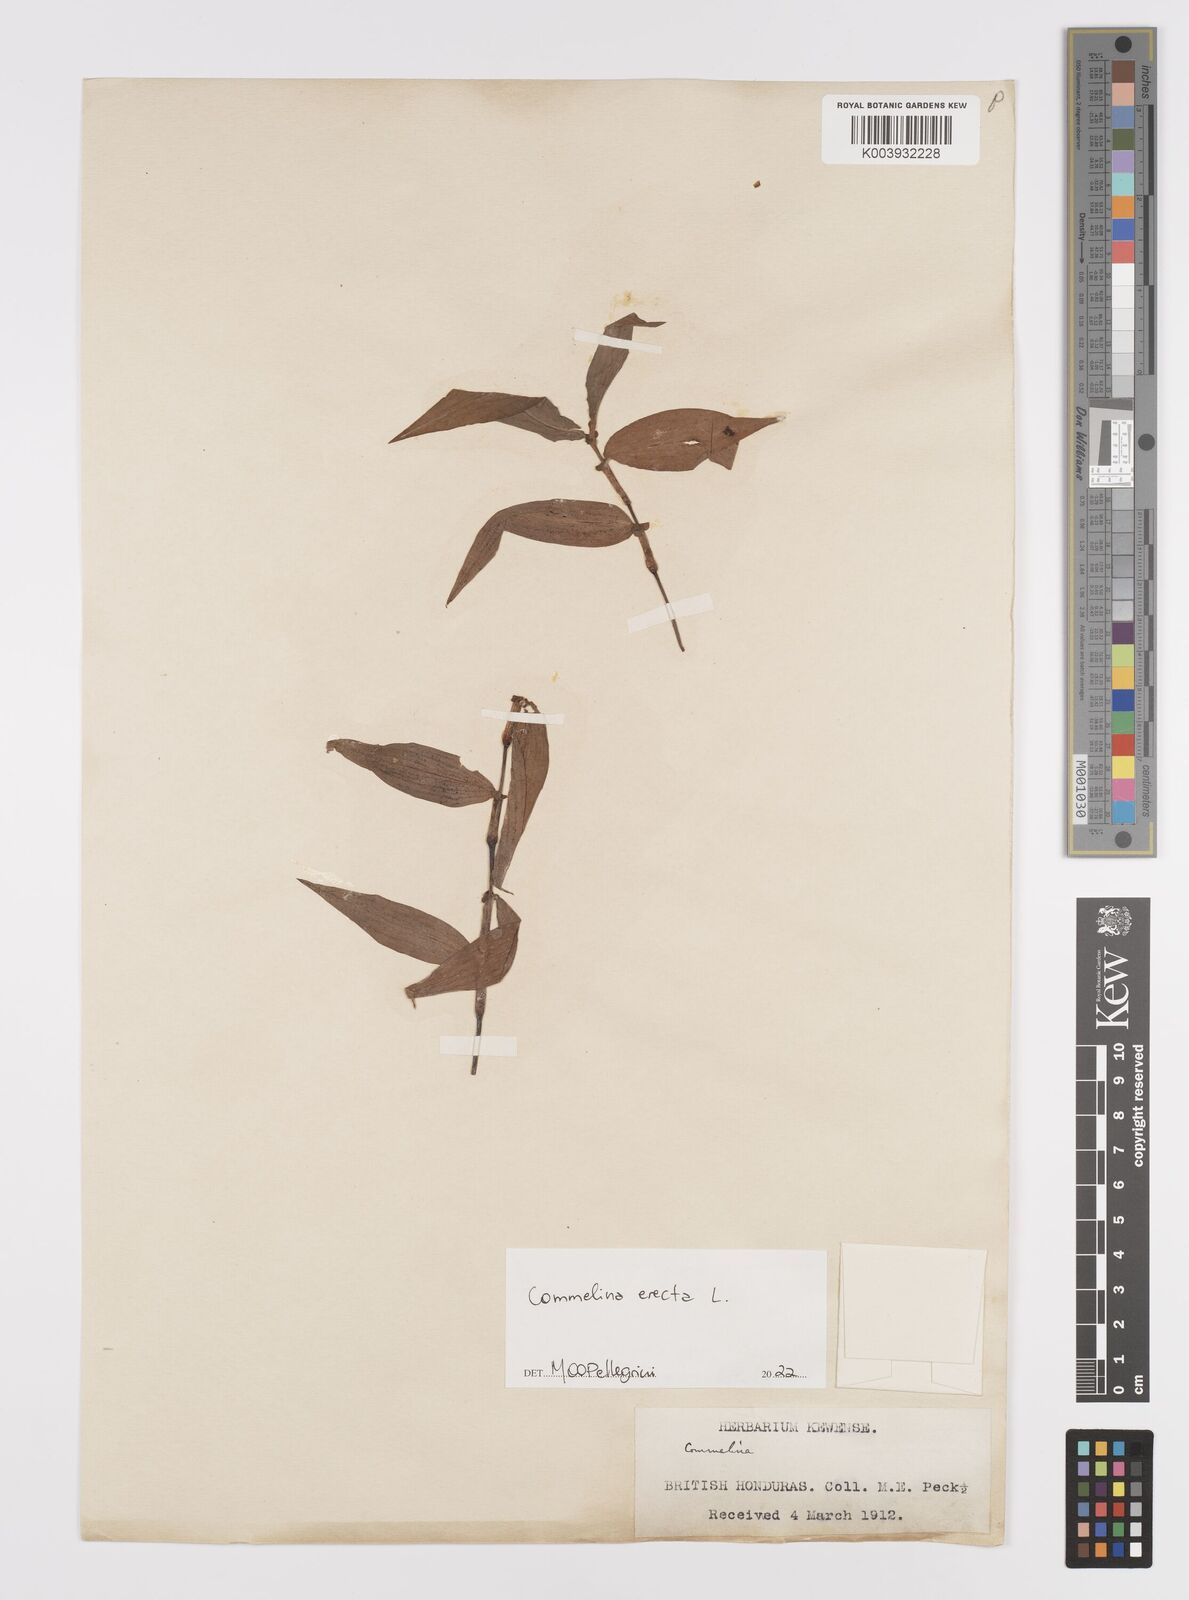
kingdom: Plantae
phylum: Tracheophyta
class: Liliopsida
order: Commelinales
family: Commelinaceae
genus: Commelina
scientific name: Commelina erecta
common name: Blousel blommetjie
